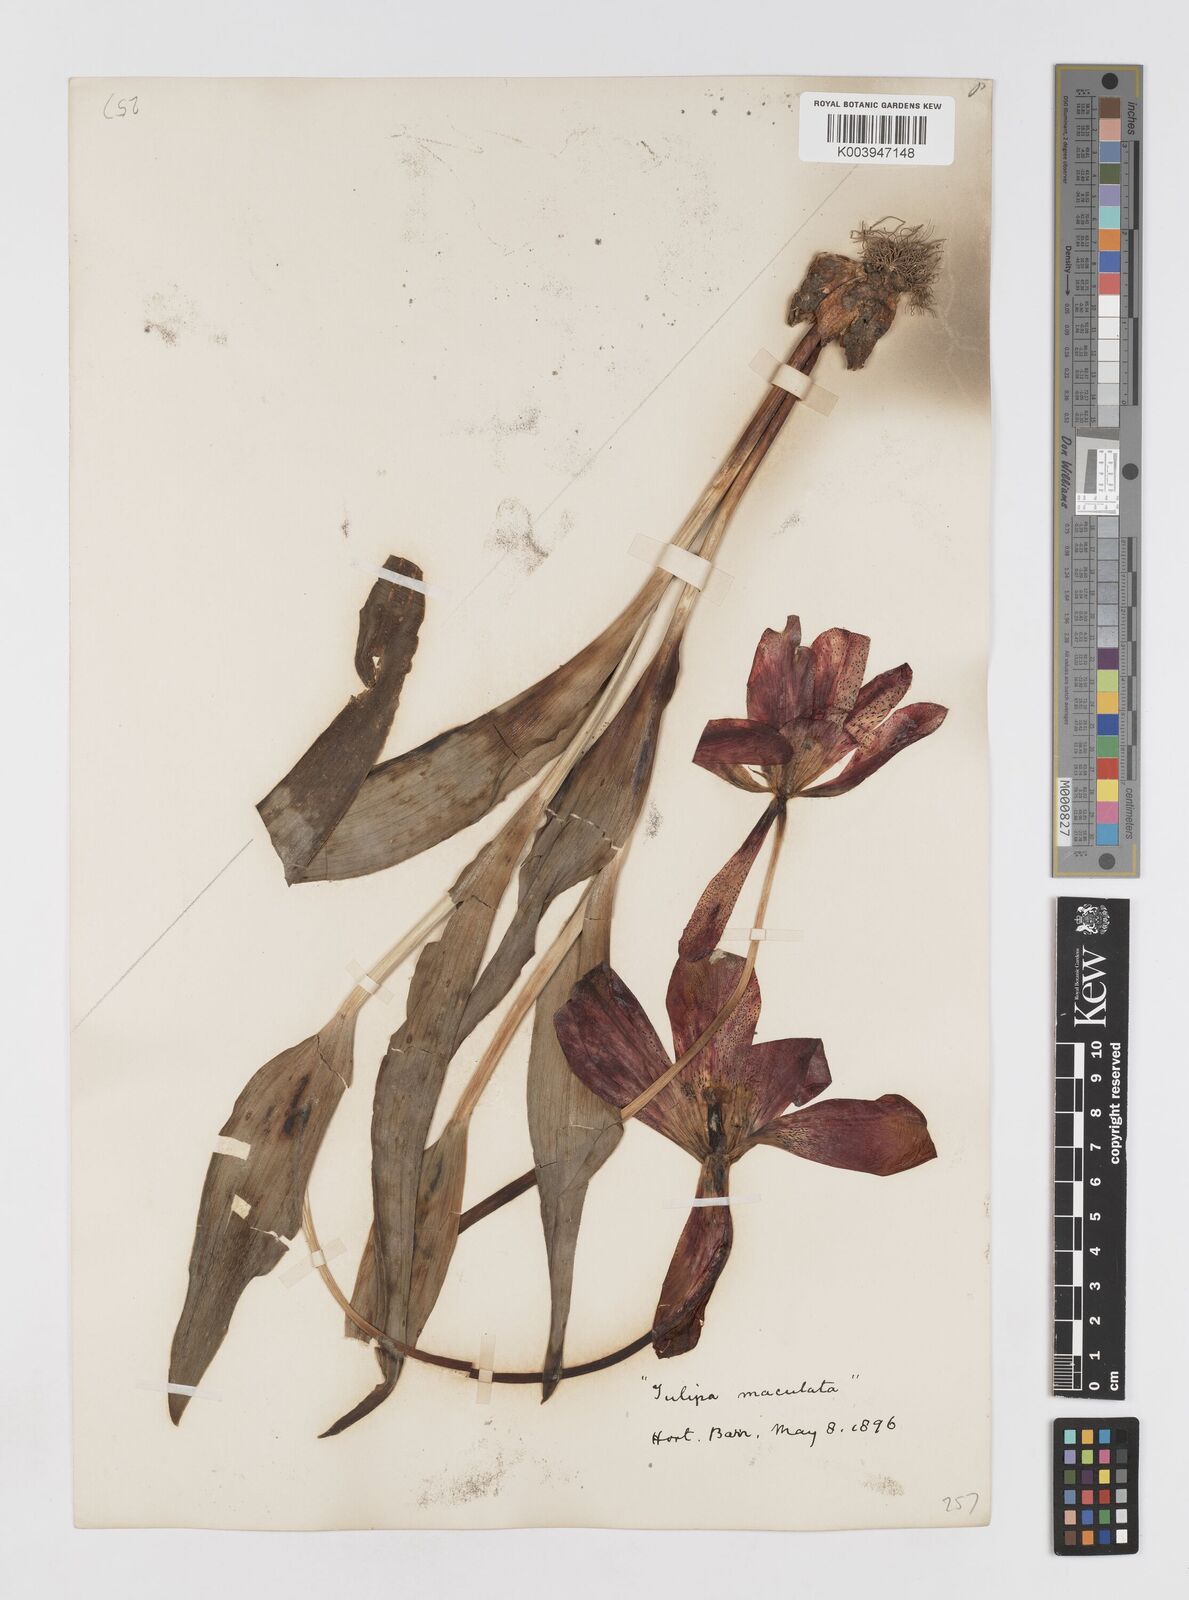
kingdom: Plantae
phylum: Tracheophyta
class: Liliopsida
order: Liliales
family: Liliaceae
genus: Tulipa
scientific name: Tulipa gesneriana
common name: Garden tulip
